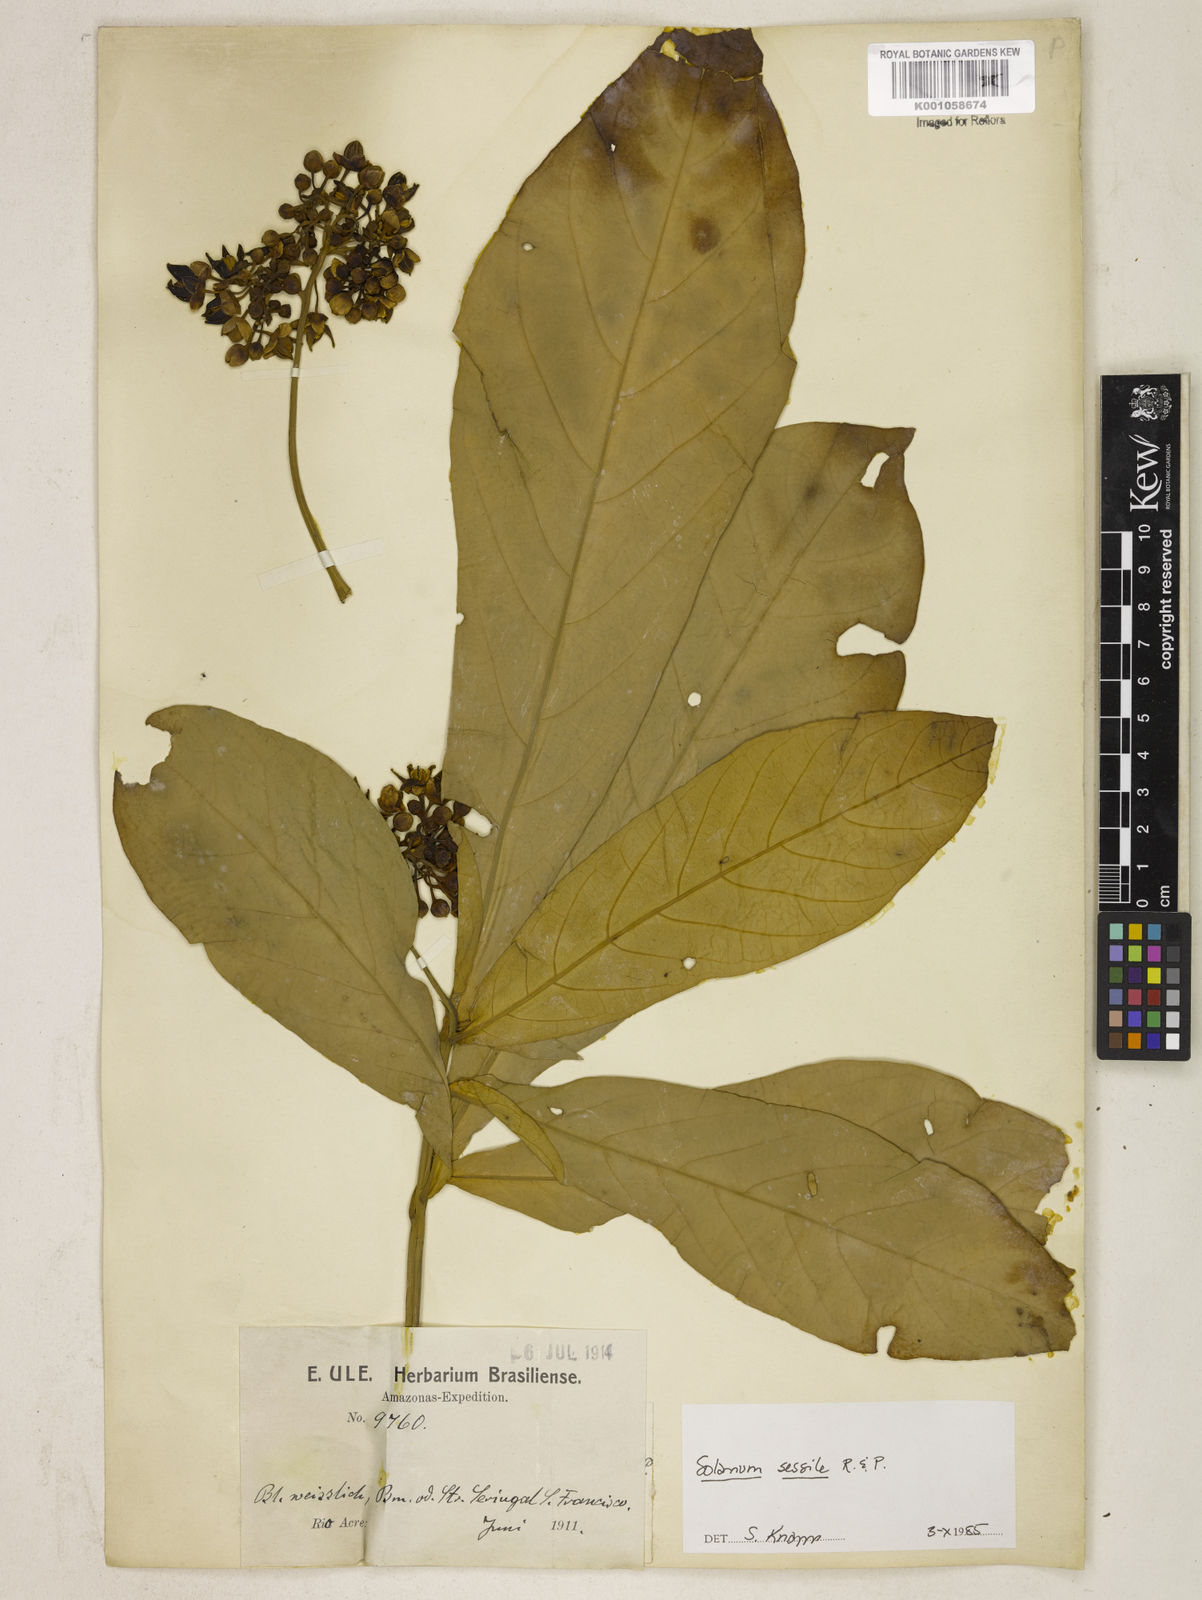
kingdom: Plantae
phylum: Tracheophyta
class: Magnoliopsida
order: Solanales
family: Solanaceae
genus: Solanum
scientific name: Solanum sessile
